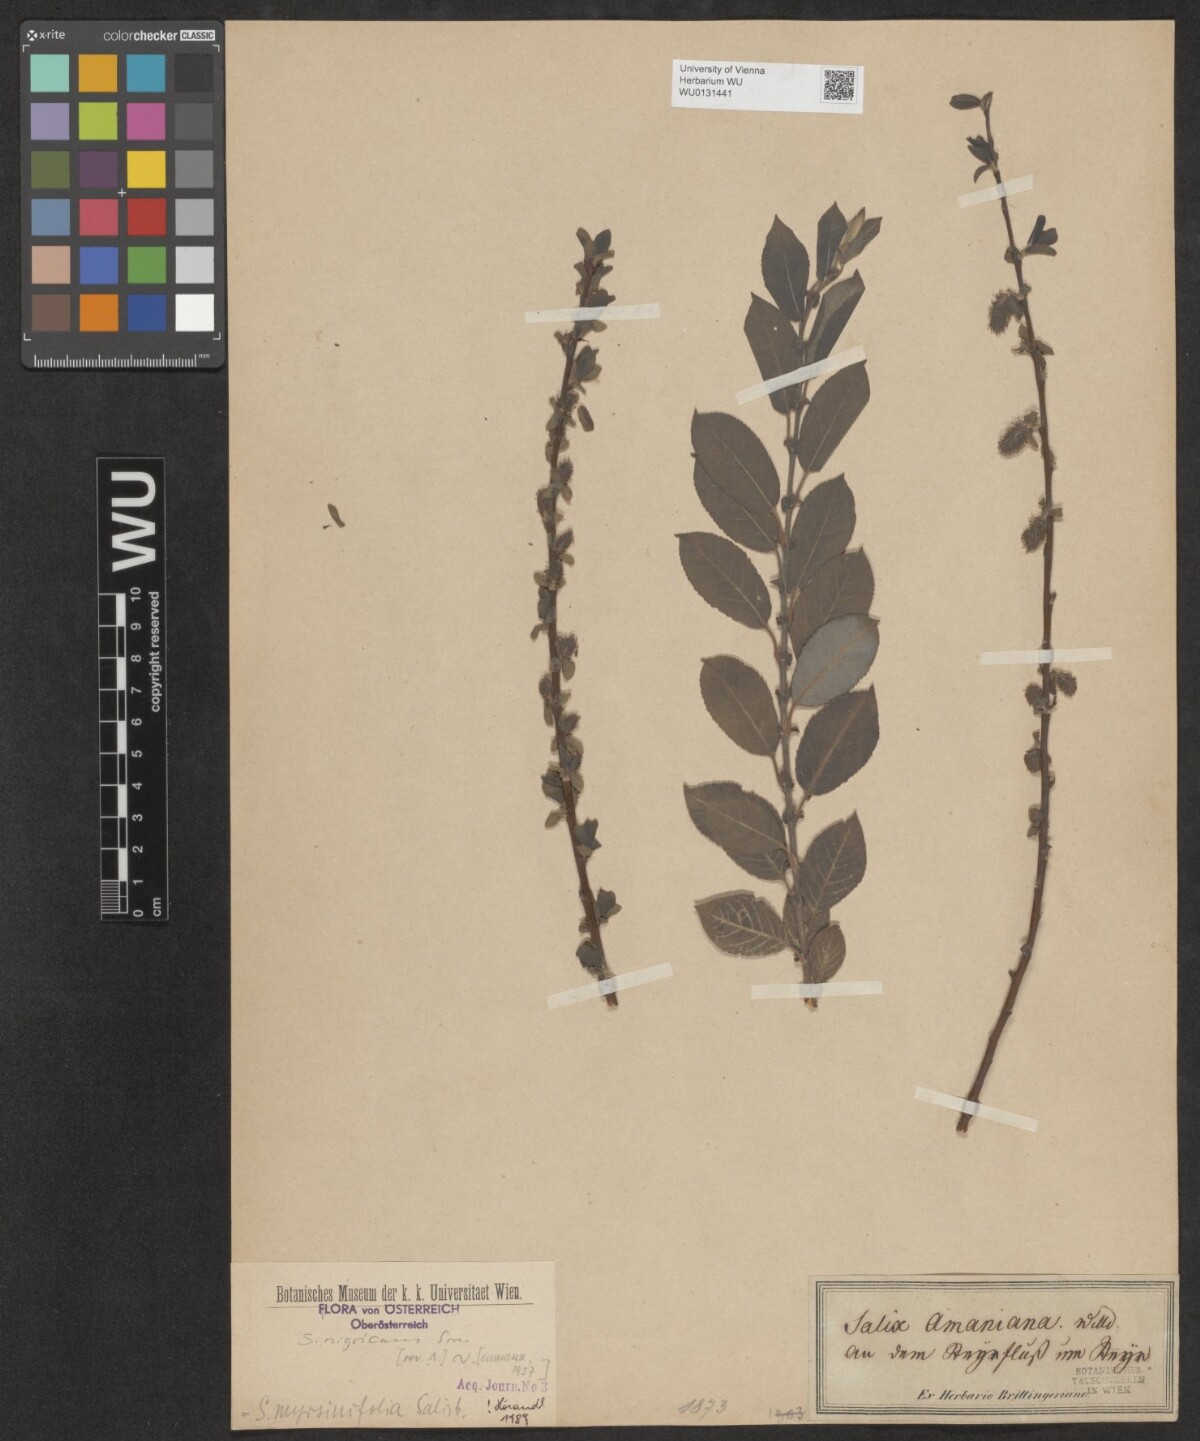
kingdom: Plantae
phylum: Tracheophyta
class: Magnoliopsida
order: Malpighiales
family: Salicaceae
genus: Salix
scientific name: Salix myrsinifolia
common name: Dark-leaved willow
